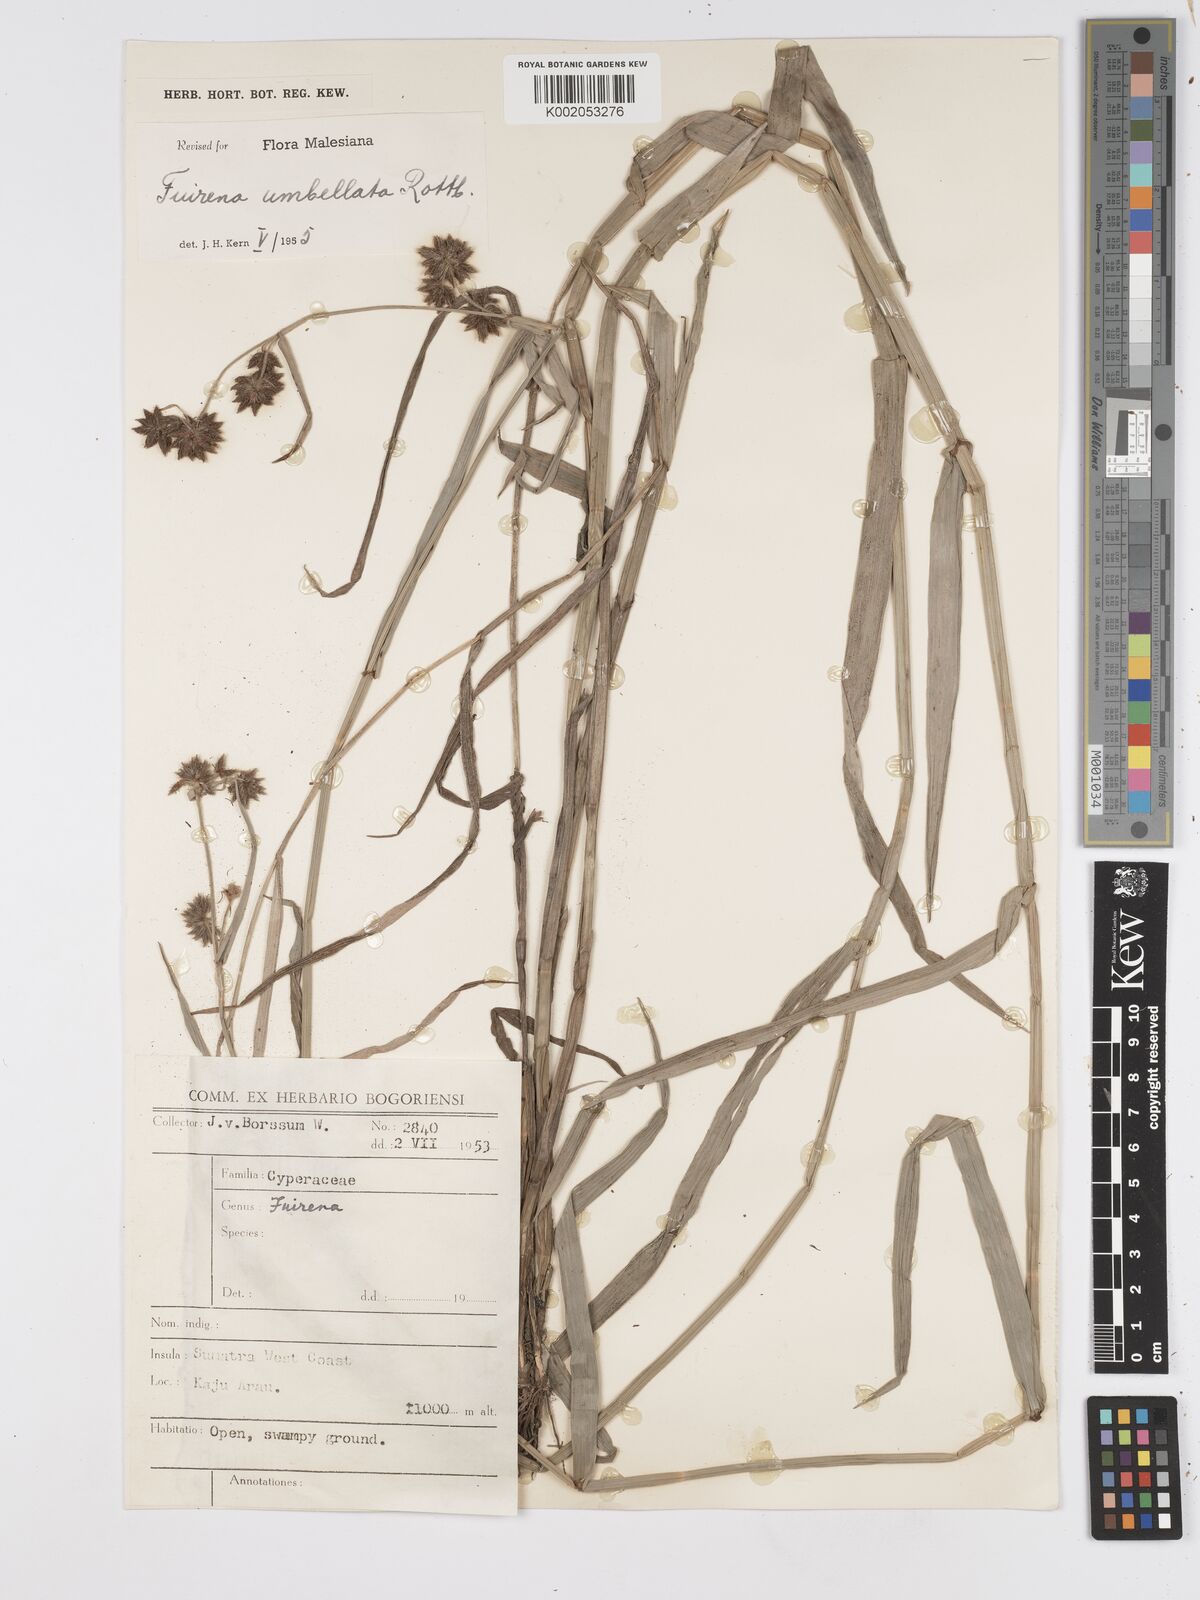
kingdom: Plantae
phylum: Tracheophyta
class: Liliopsida
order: Poales
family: Cyperaceae
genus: Fuirena
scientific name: Fuirena umbellata
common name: Yefen
